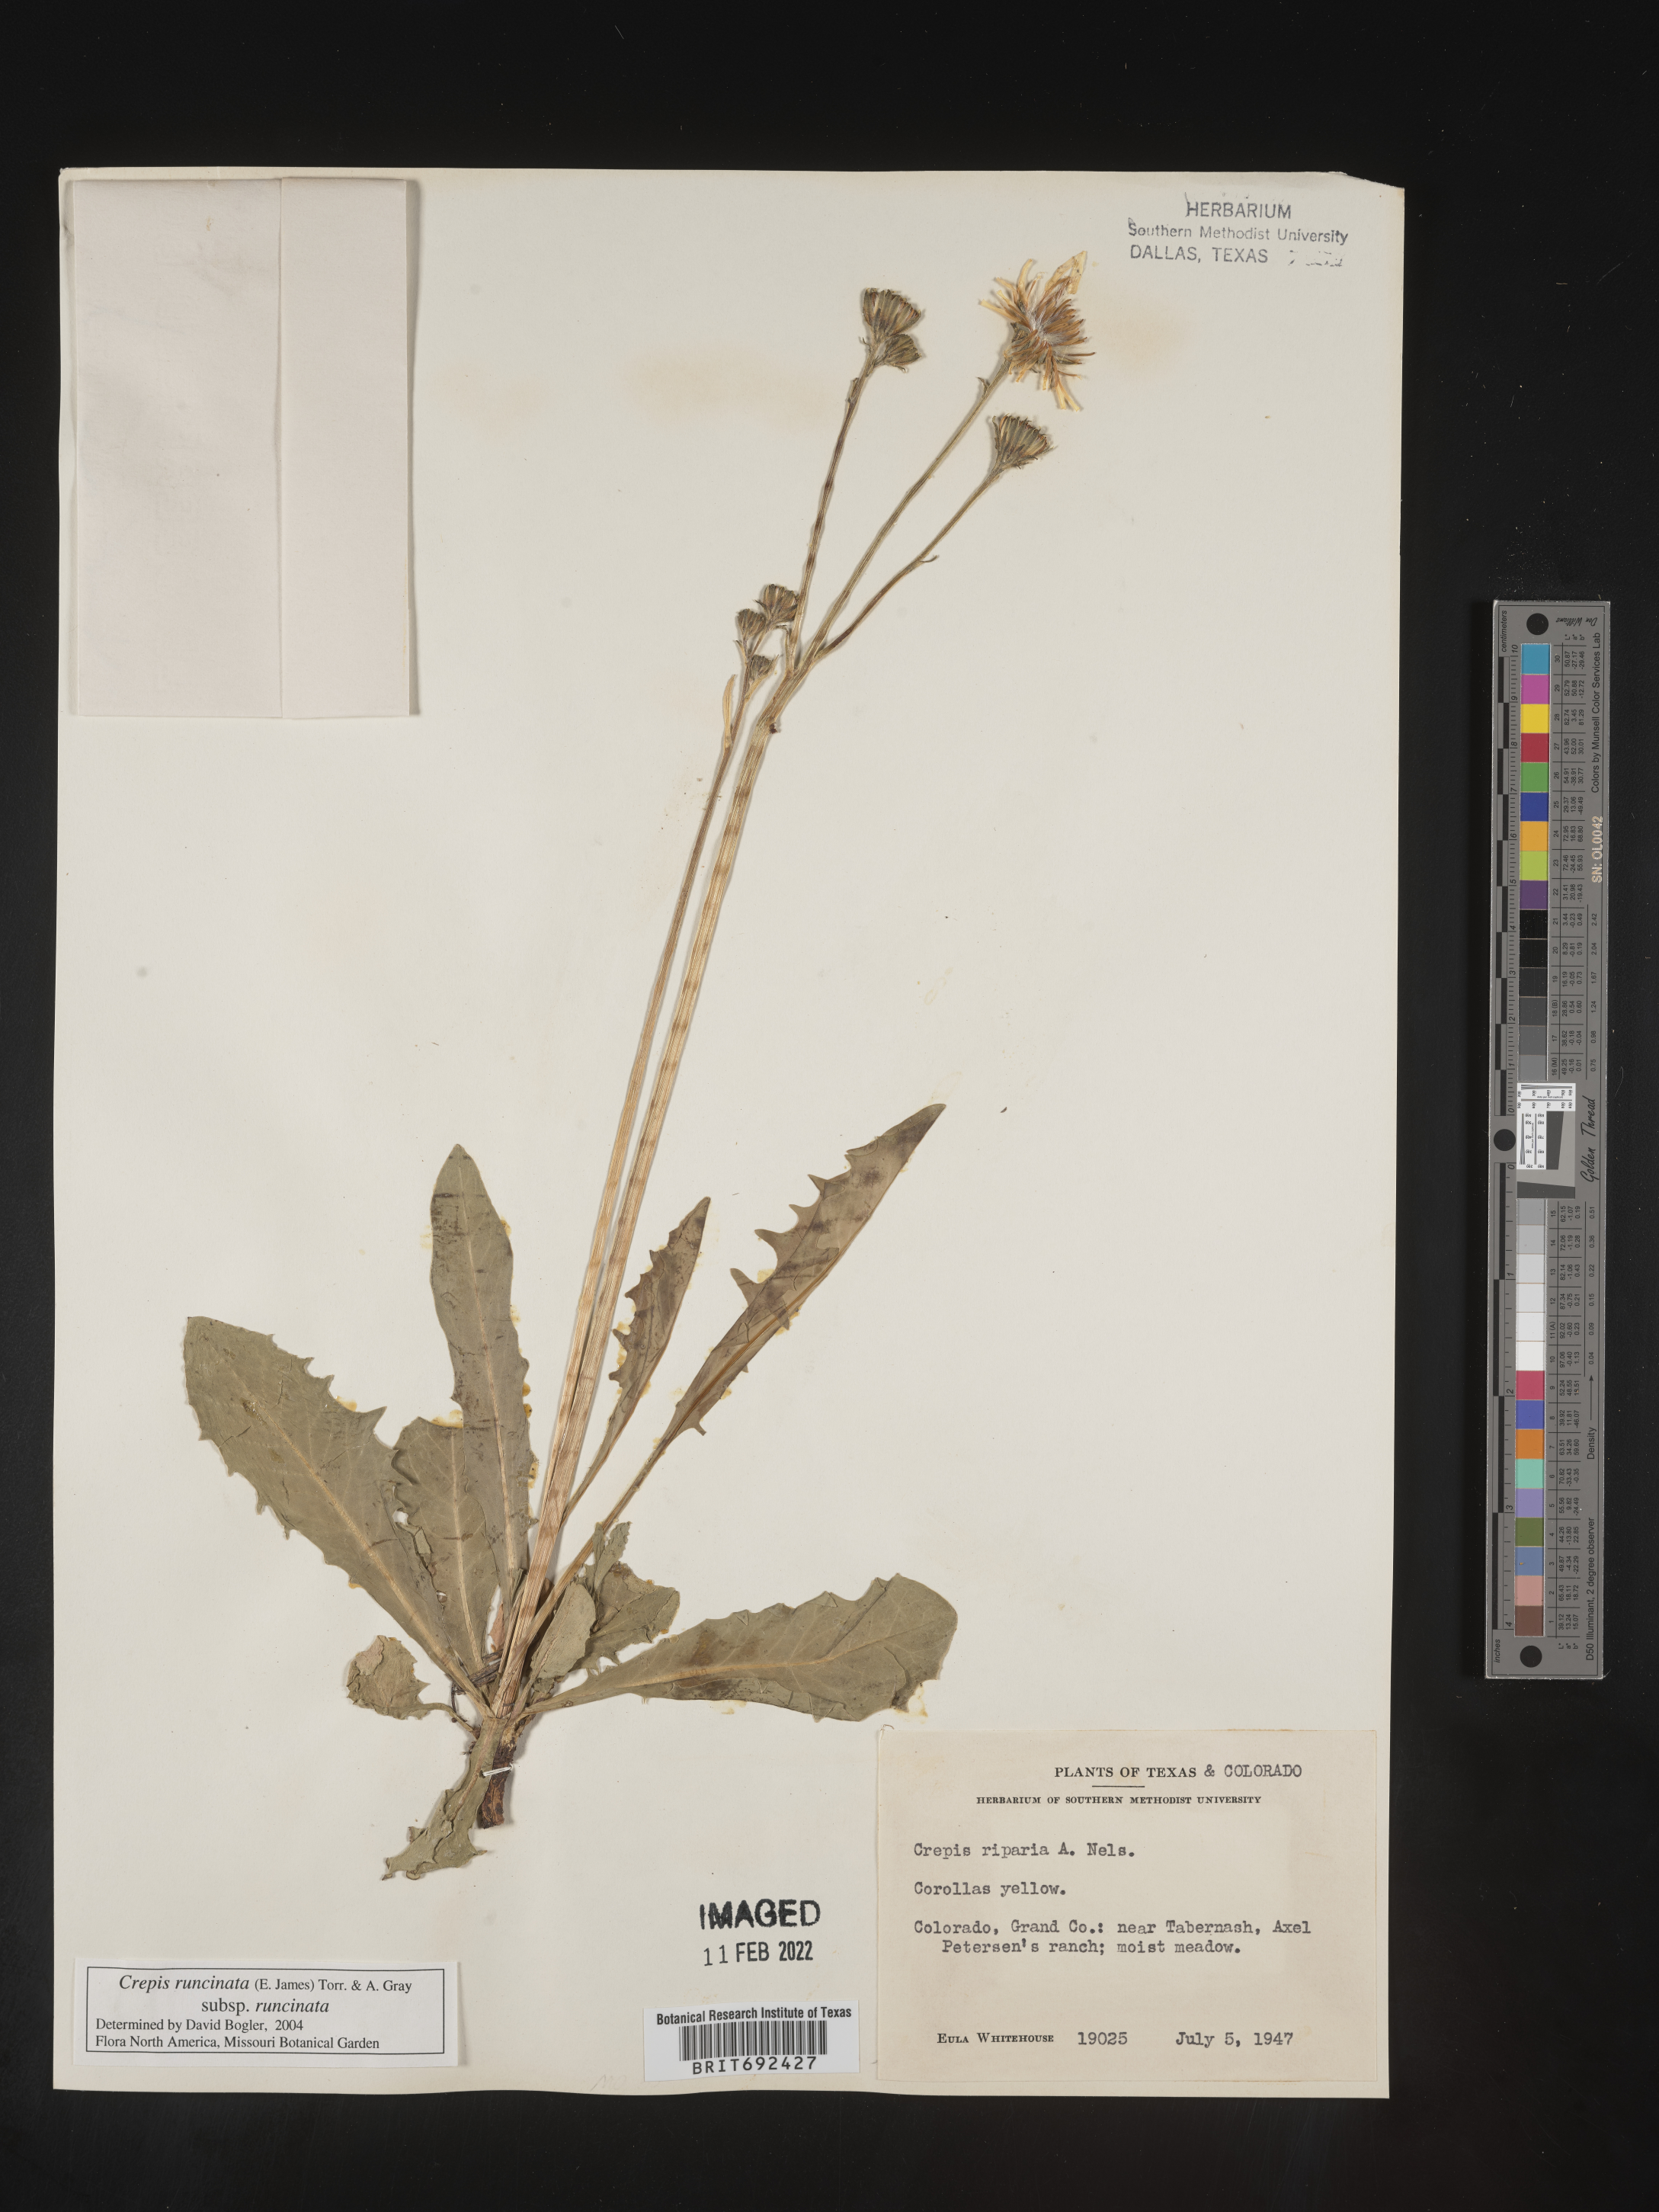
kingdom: Plantae
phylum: Tracheophyta
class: Magnoliopsida
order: Asterales
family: Asteraceae
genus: Crepis
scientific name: Crepis
